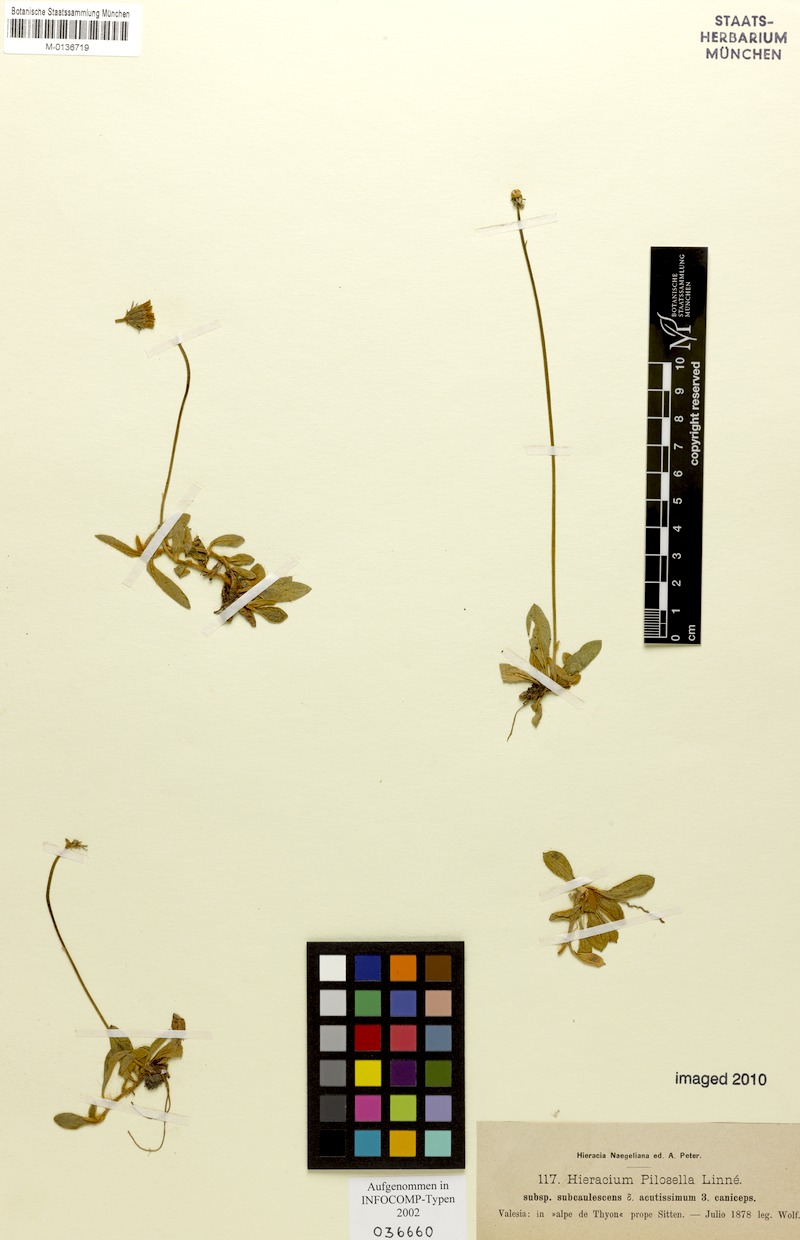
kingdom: Plantae
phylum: Tracheophyta
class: Magnoliopsida
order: Asterales
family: Asteraceae
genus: Pilosella
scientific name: Pilosella officinarum
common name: Mouse-ear hawkweed
